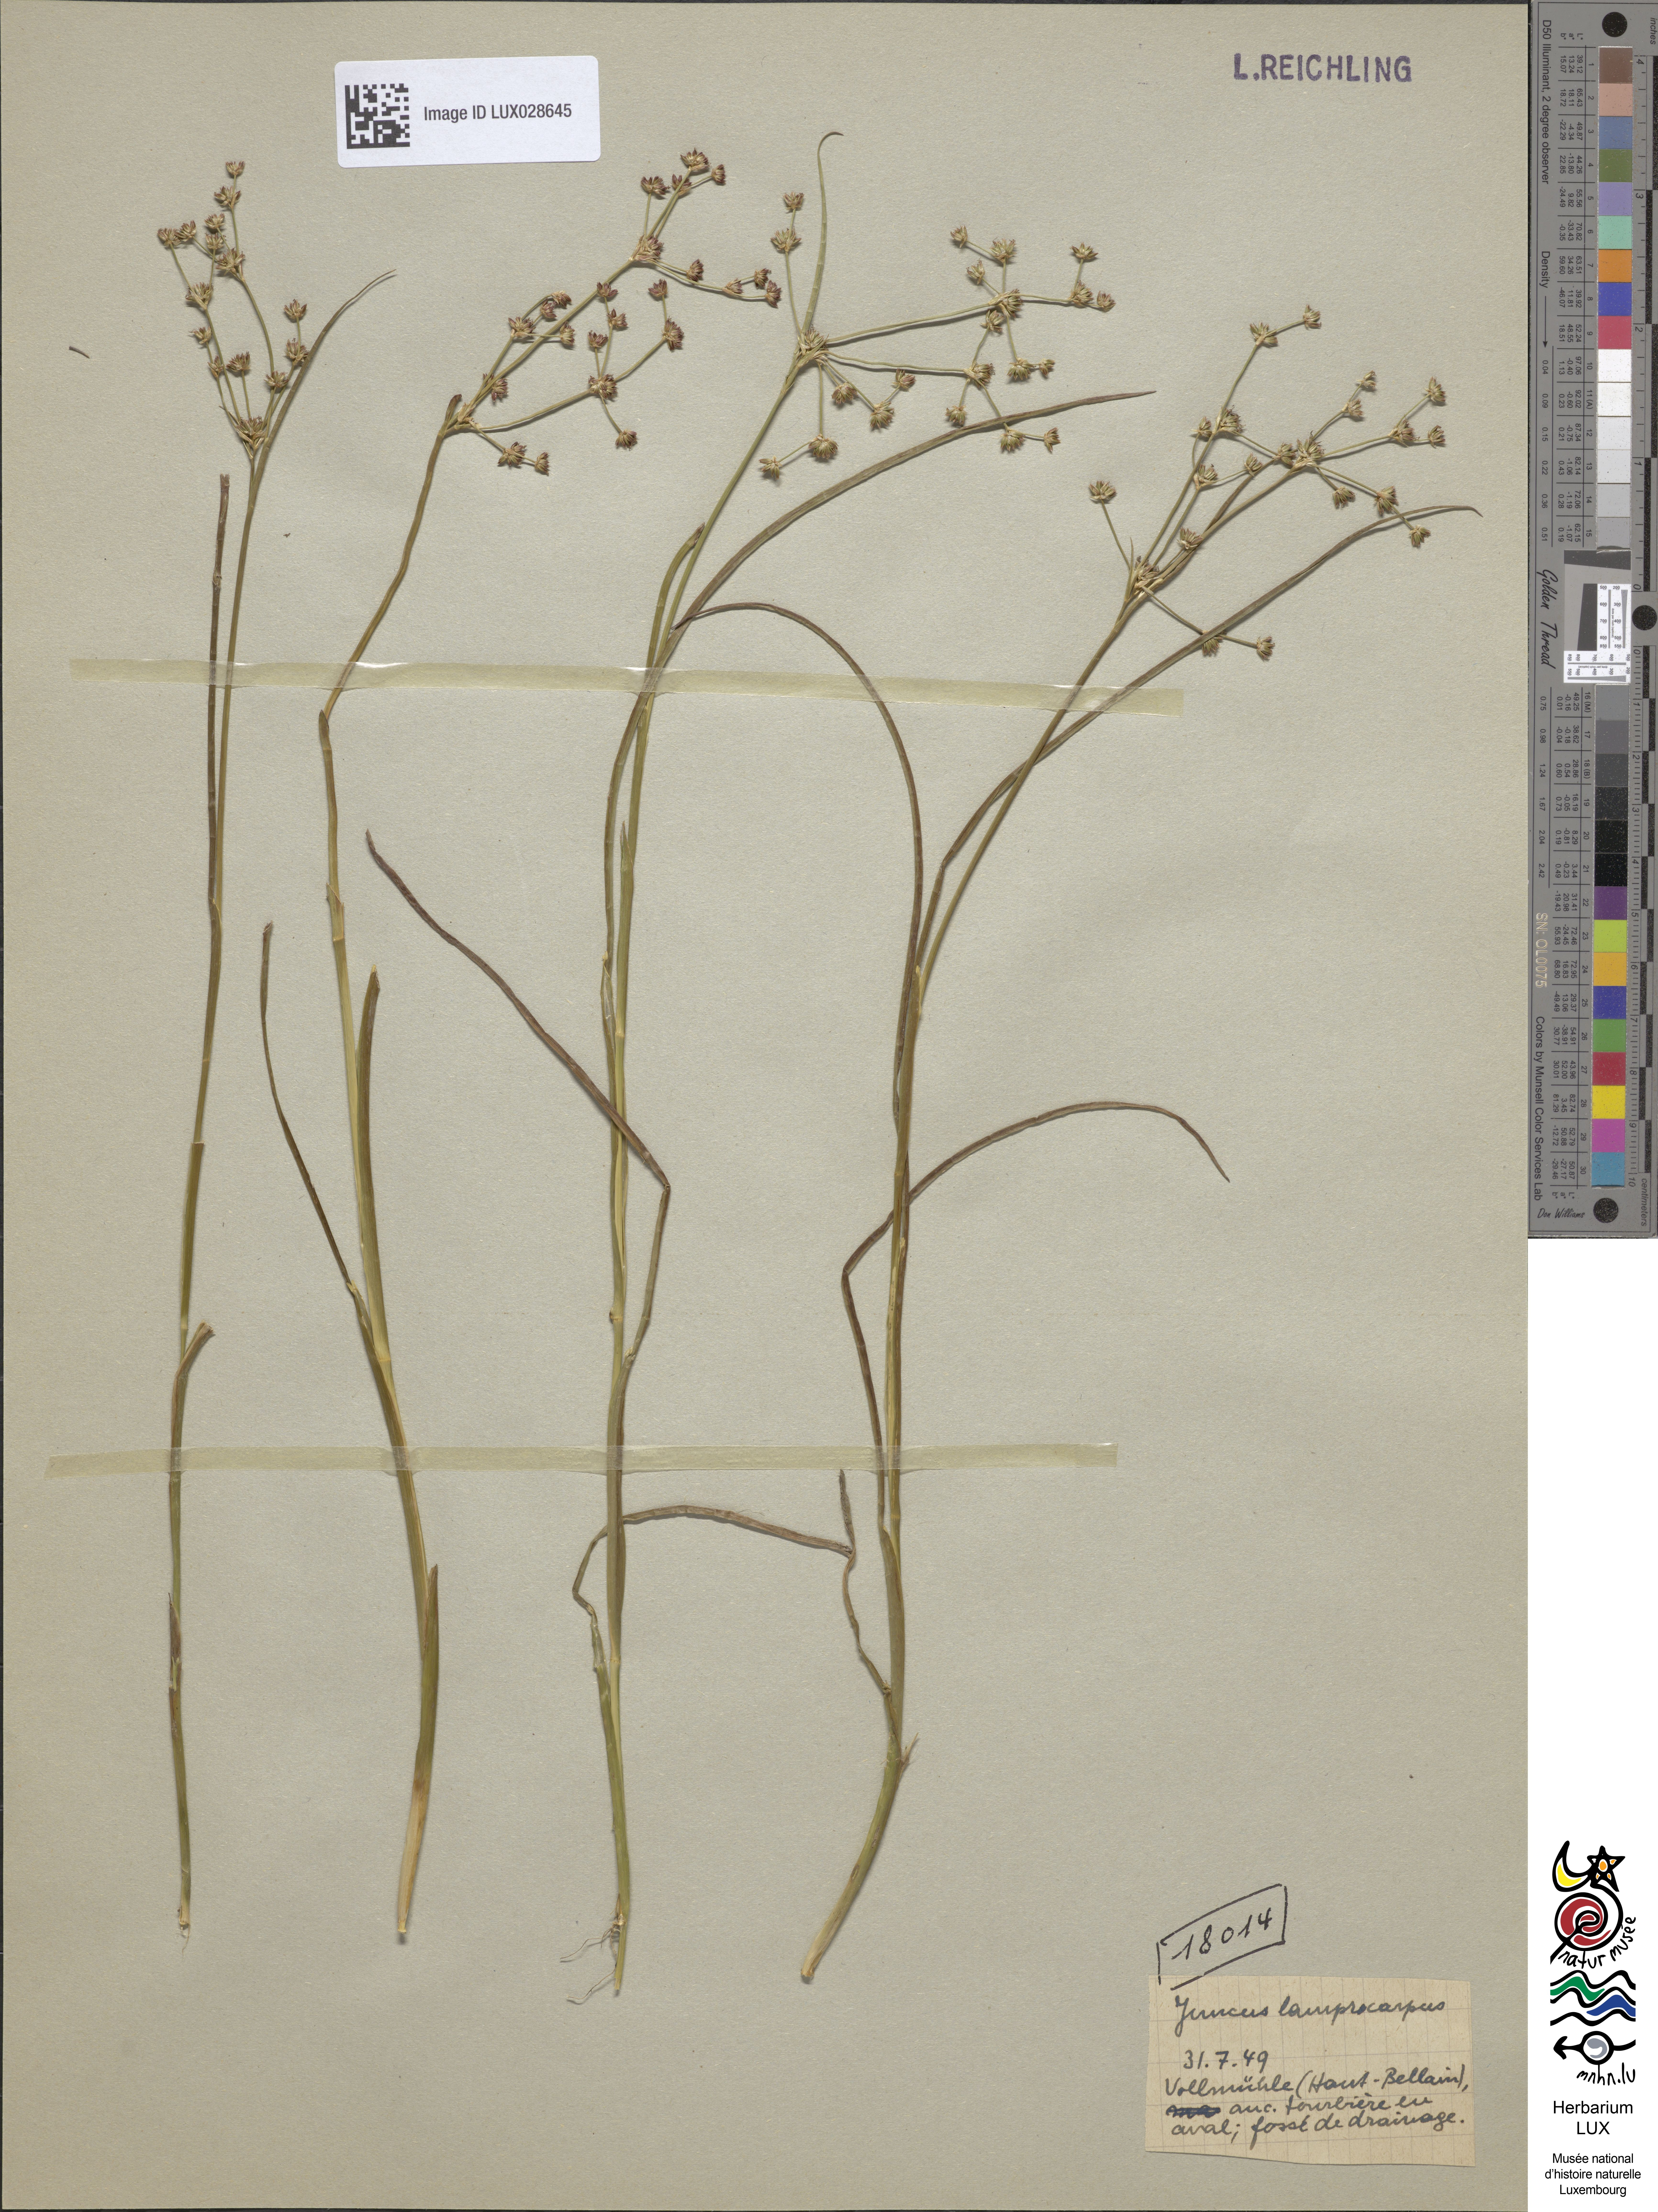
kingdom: Plantae
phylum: Tracheophyta
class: Liliopsida
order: Poales
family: Juncaceae
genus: Juncus
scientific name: Juncus articulatus
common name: Jointed rush
